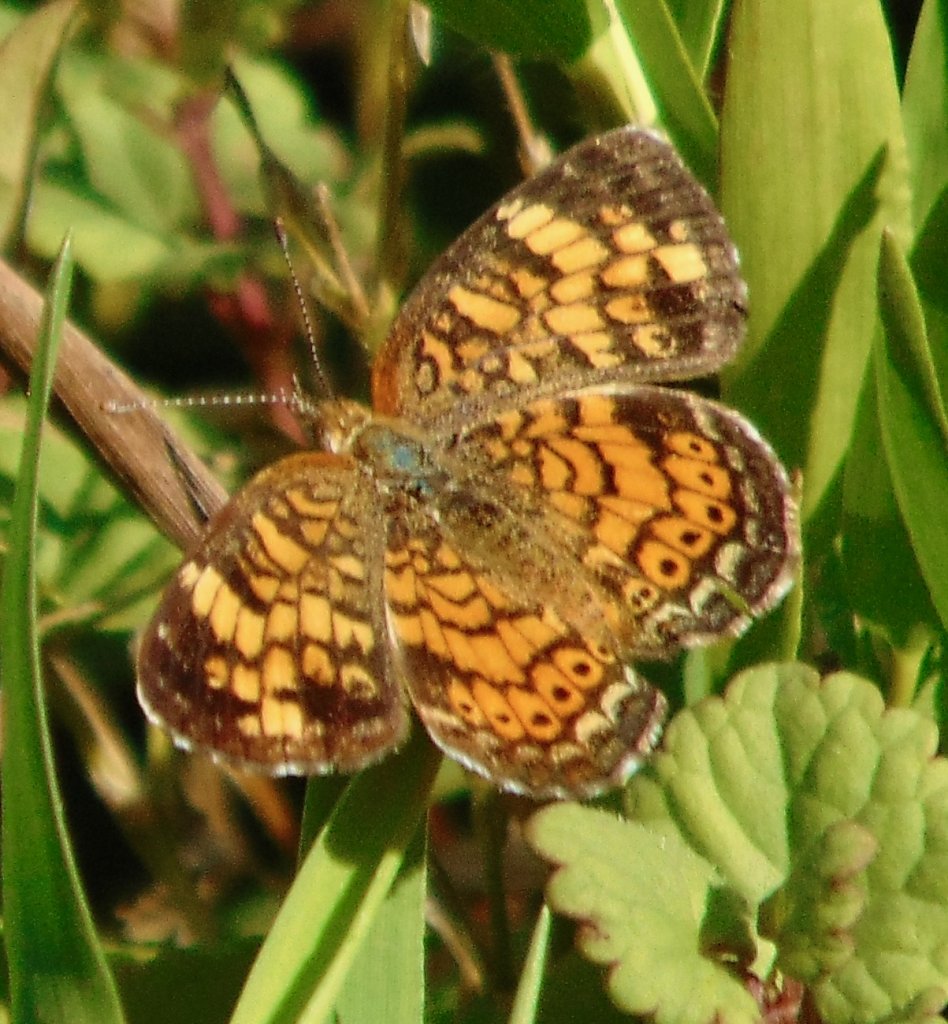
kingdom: Animalia
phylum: Arthropoda
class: Insecta
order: Lepidoptera
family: Nymphalidae
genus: Phyciodes
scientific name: Phyciodes tharos
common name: Pearl Crescent
